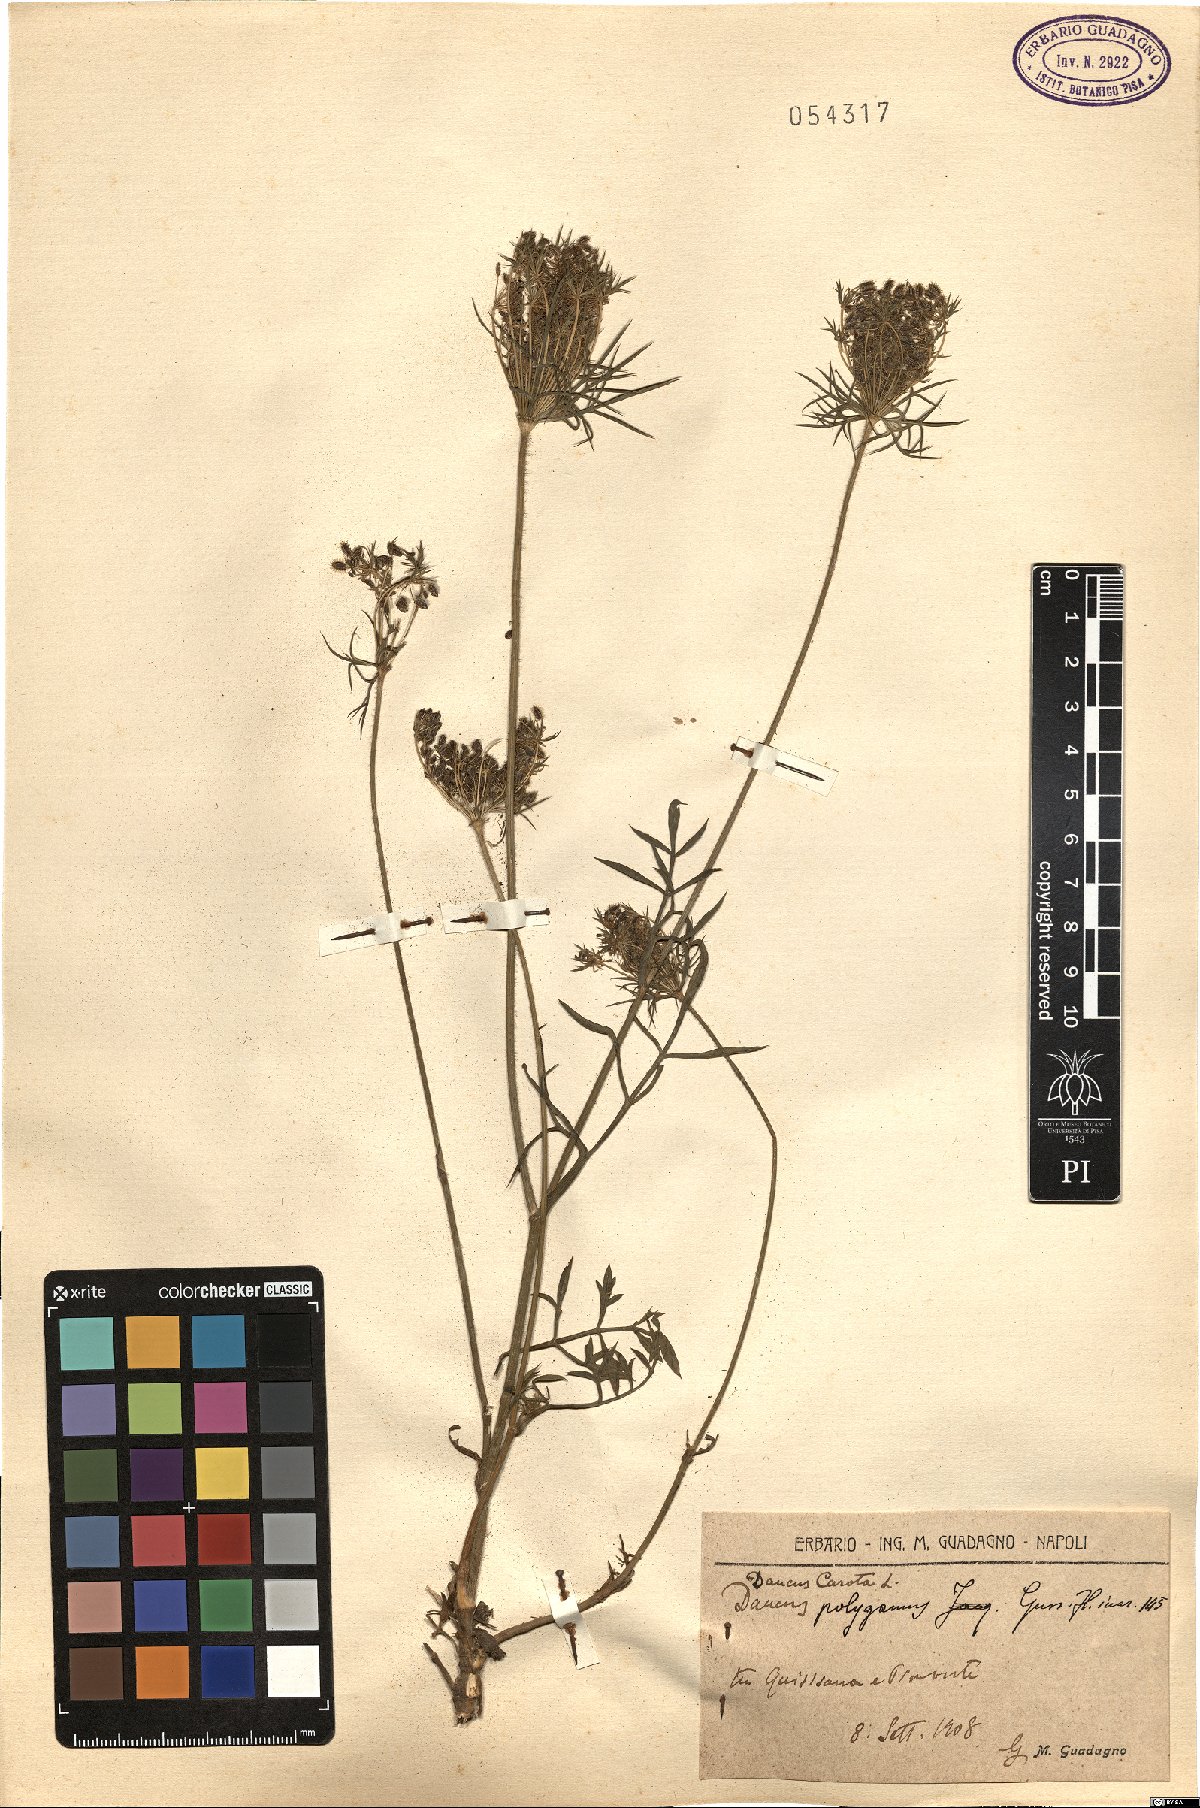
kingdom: Plantae
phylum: Tracheophyta
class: Magnoliopsida
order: Apiales
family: Apiaceae
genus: Daucus
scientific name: Daucus carota
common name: Wild carrot
